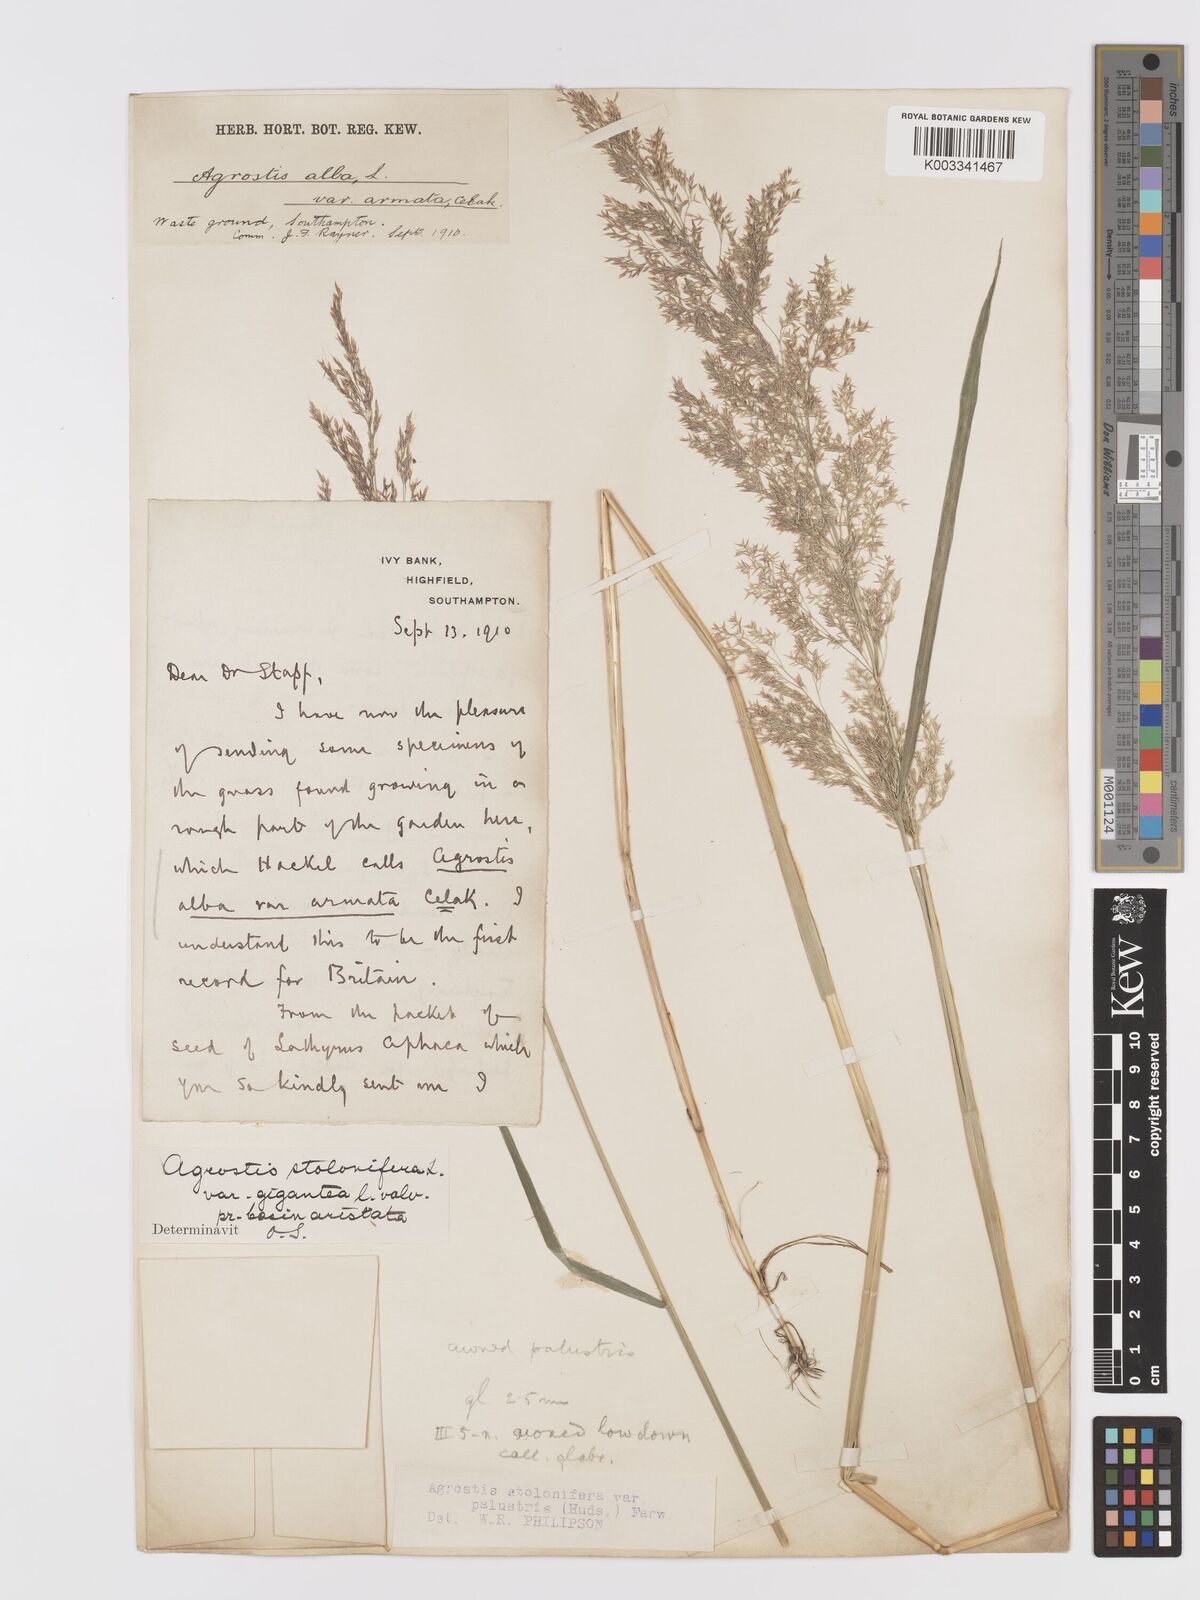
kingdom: Plantae
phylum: Tracheophyta
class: Liliopsida
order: Poales
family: Poaceae
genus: Agrostis
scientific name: Agrostis stolonifera
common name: Creeping bentgrass
